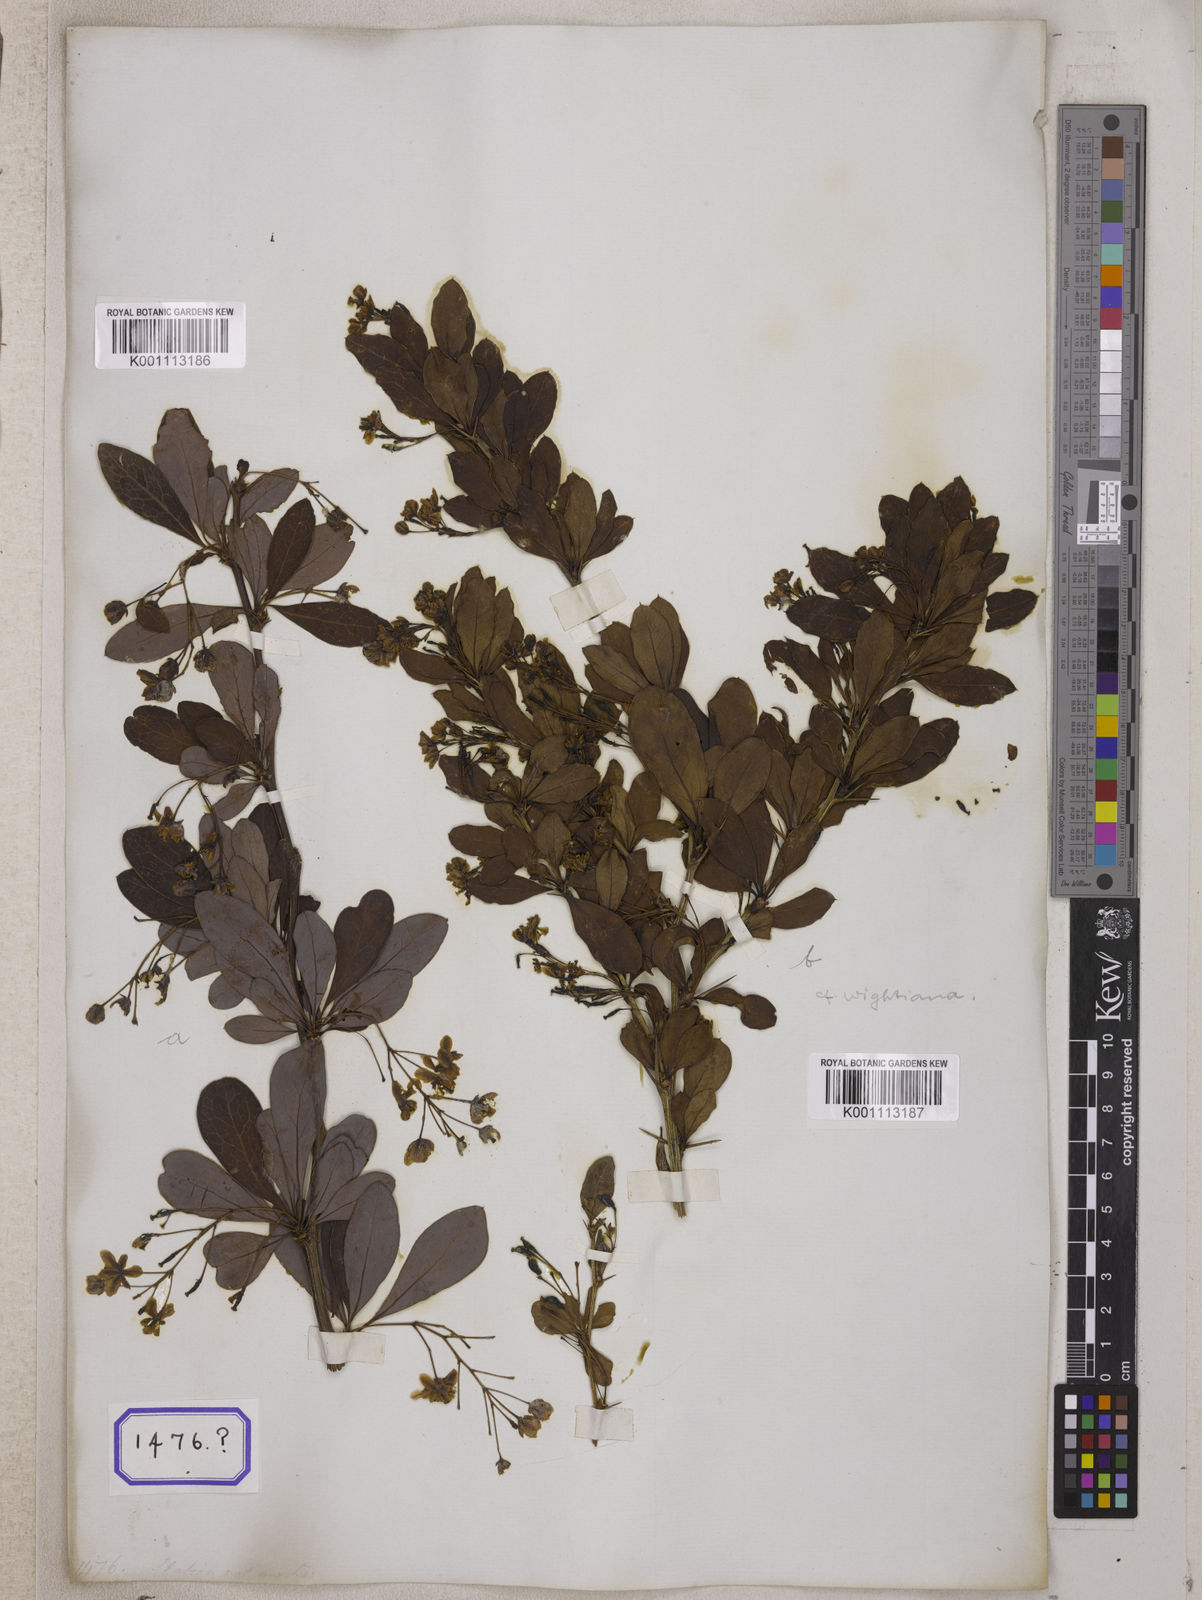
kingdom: Plantae
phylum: Tracheophyta
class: Magnoliopsida
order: Ranunculales
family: Berberidaceae
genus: Berberis
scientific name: Berberis tinctoria
